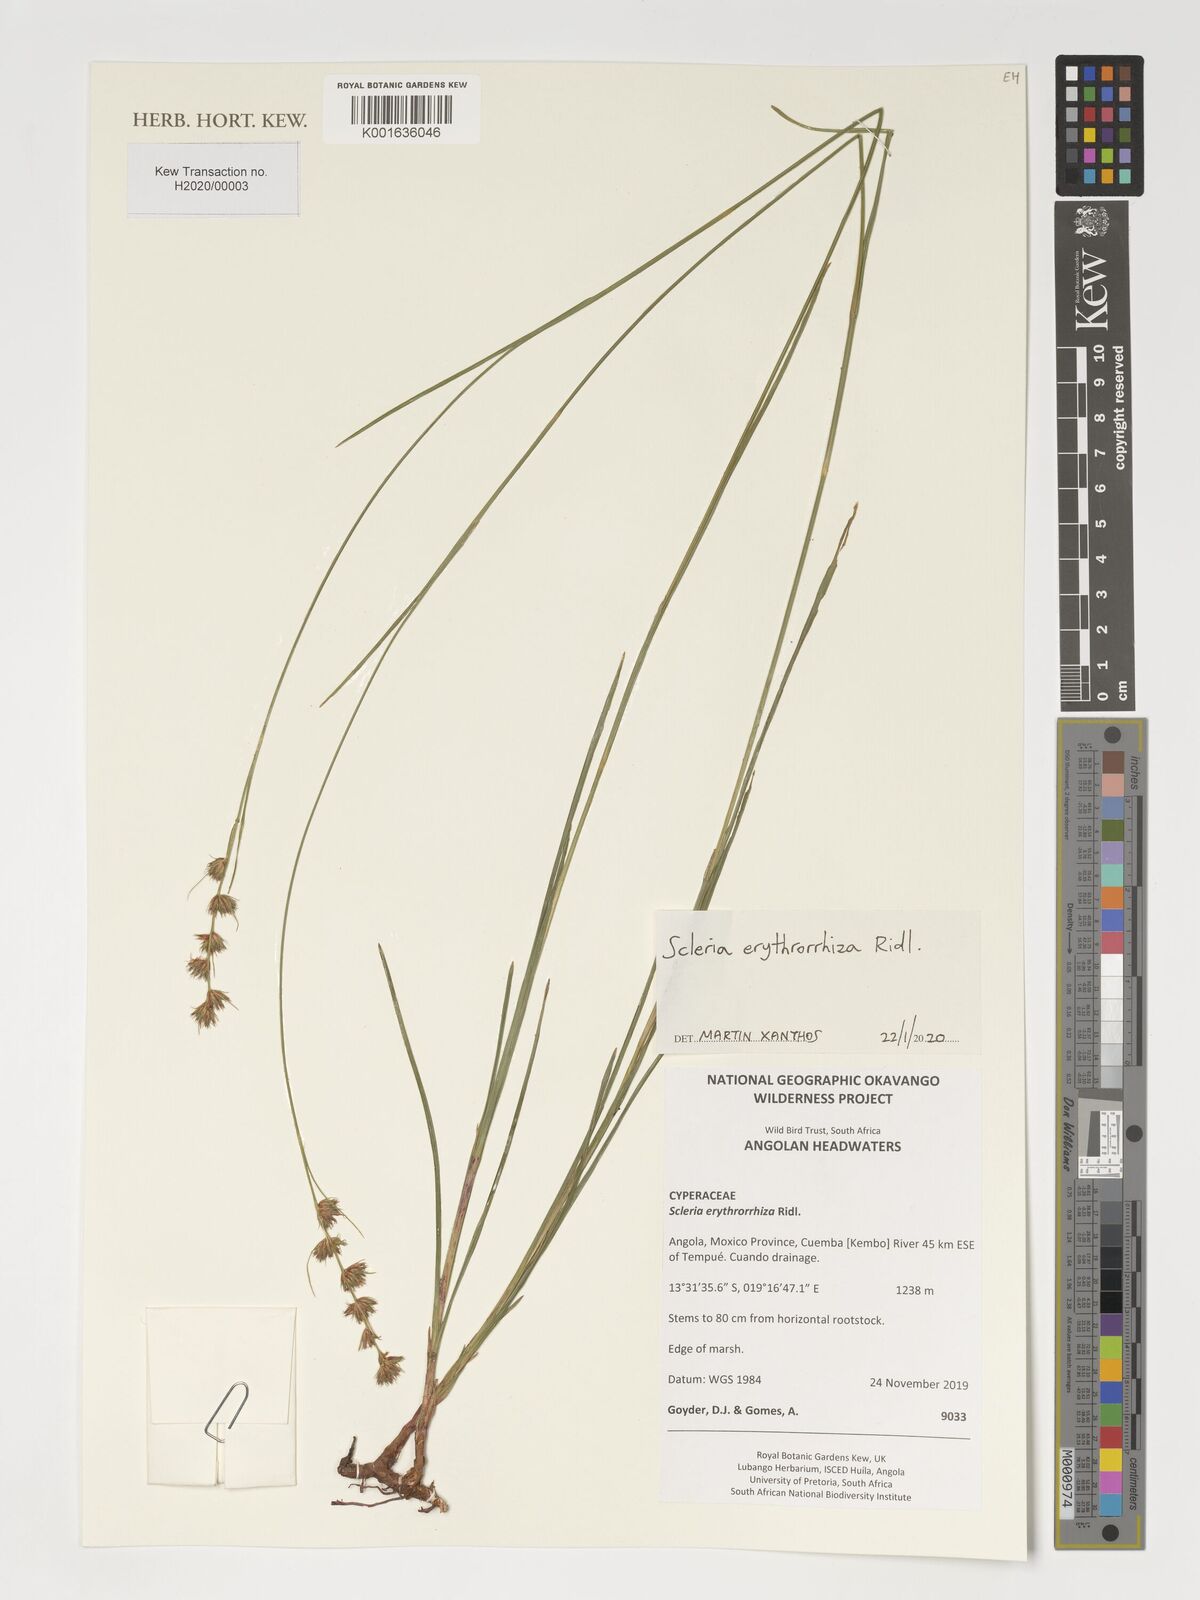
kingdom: Plantae
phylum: Tracheophyta
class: Liliopsida
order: Poales
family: Cyperaceae
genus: Scleria
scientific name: Scleria erythrorrhiza
